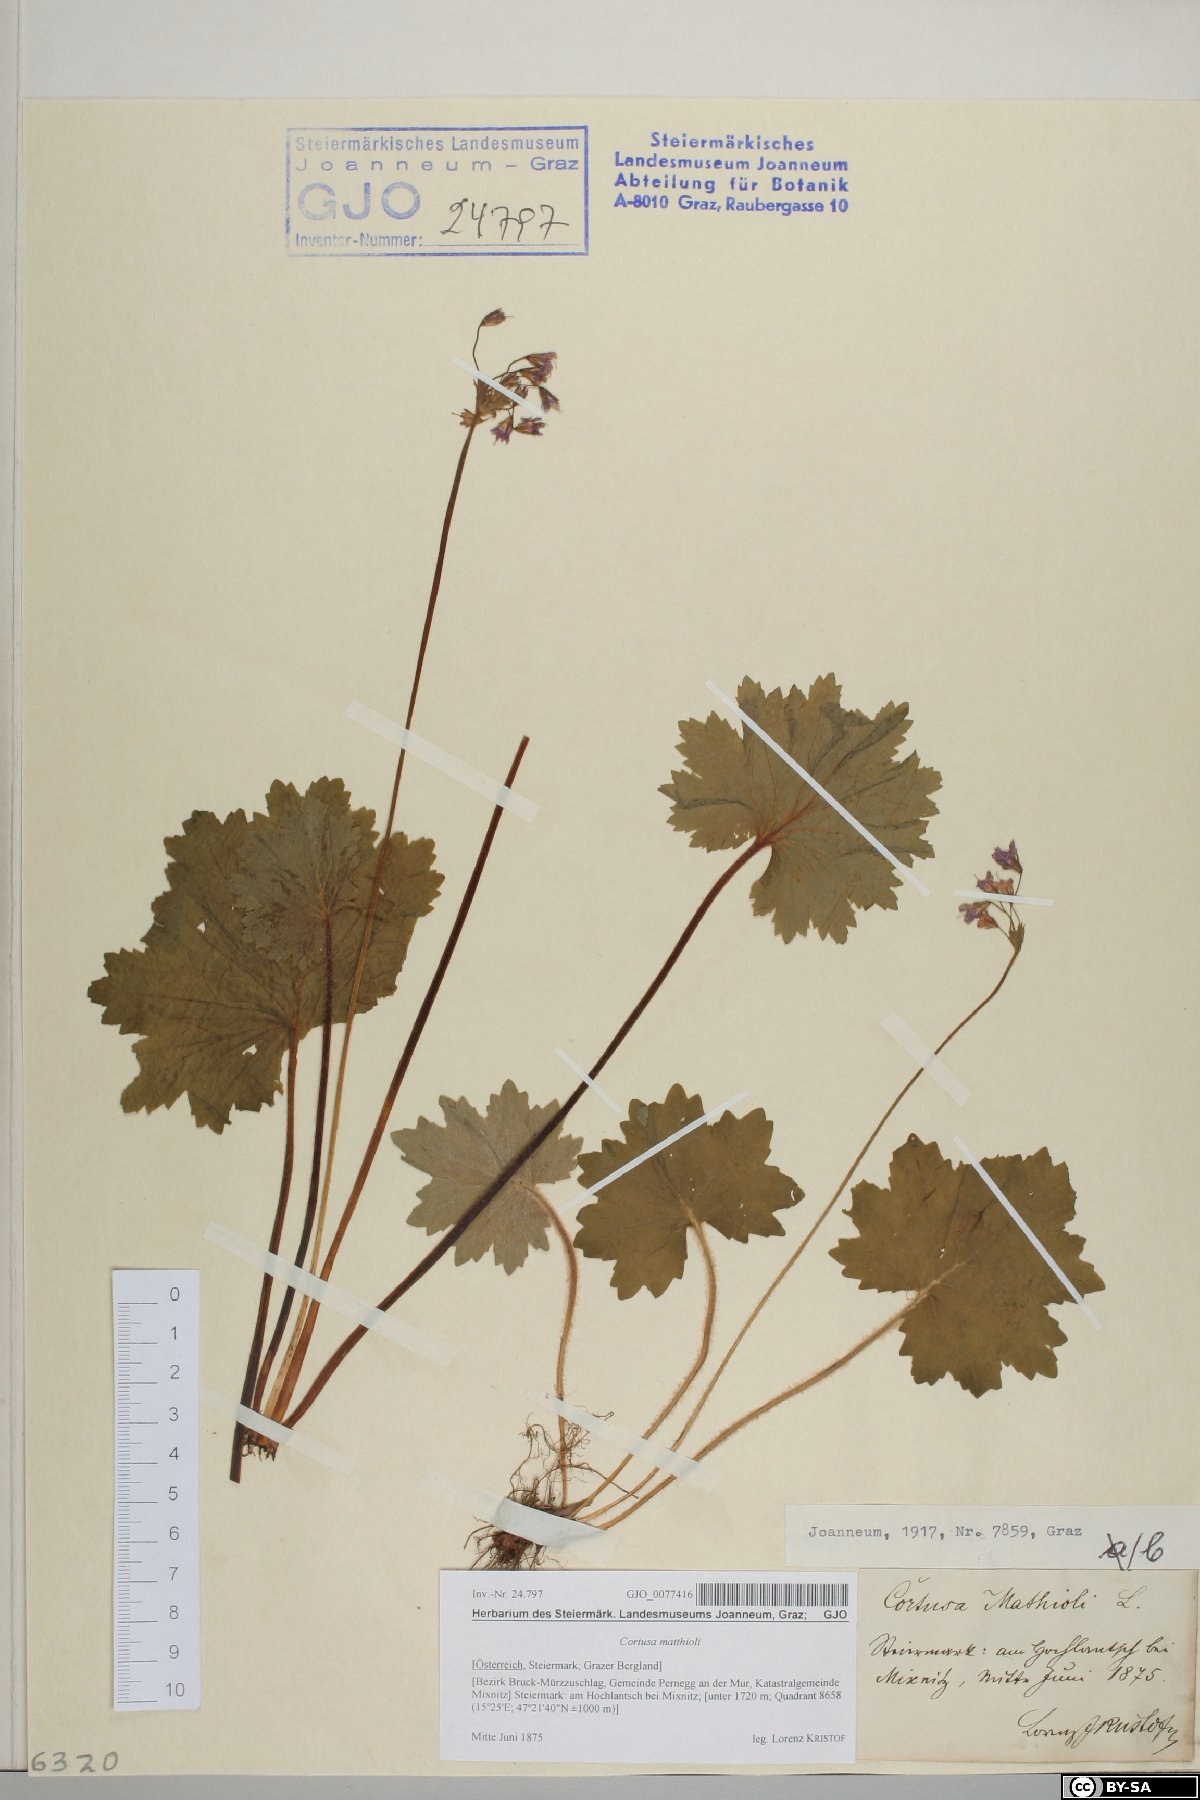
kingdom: Plantae
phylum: Tracheophyta
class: Magnoliopsida
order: Ericales
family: Primulaceae
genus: Primula
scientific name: Primula matthioli
